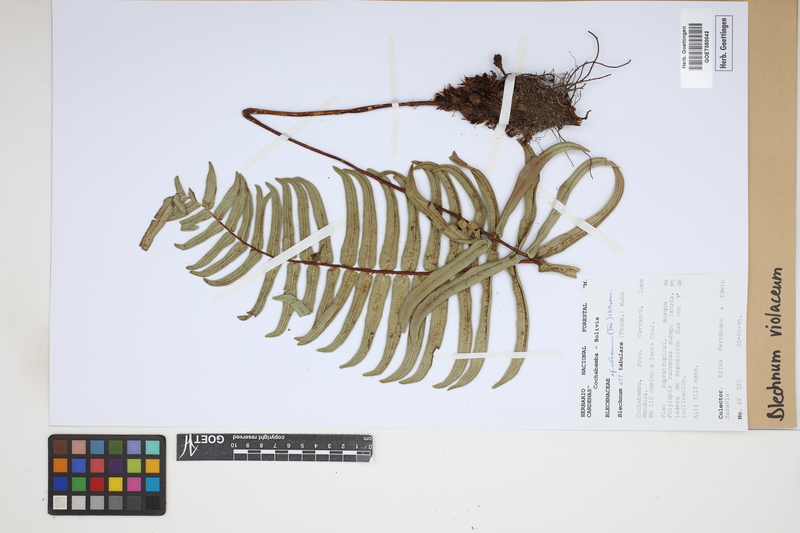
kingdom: Plantae
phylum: Tracheophyta
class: Polypodiopsida
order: Polypodiales
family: Blechnaceae
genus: Parablechnum
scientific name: Parablechnum lechleri
